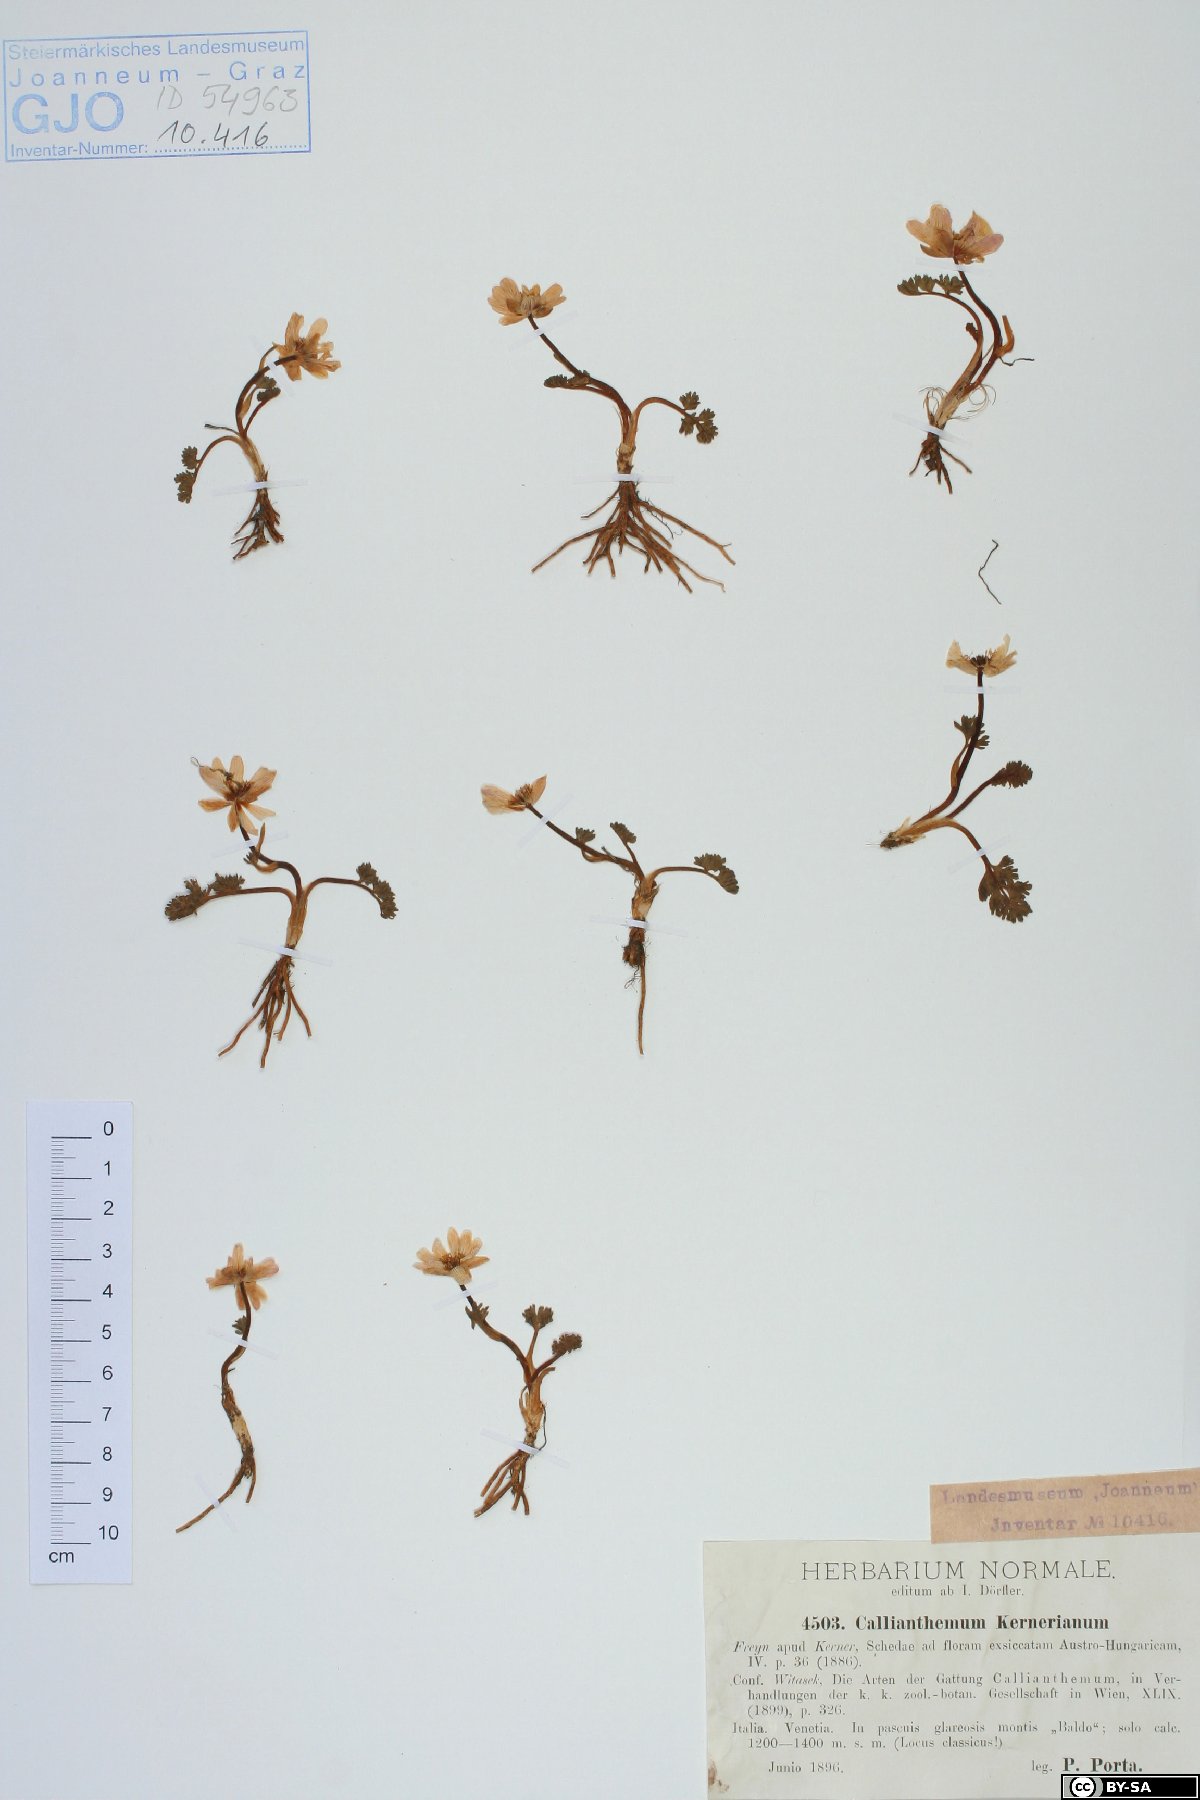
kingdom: Plantae
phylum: Tracheophyta
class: Magnoliopsida
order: Ranunculales
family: Ranunculaceae
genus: Callianthemum
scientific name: Callianthemum kernerianum
